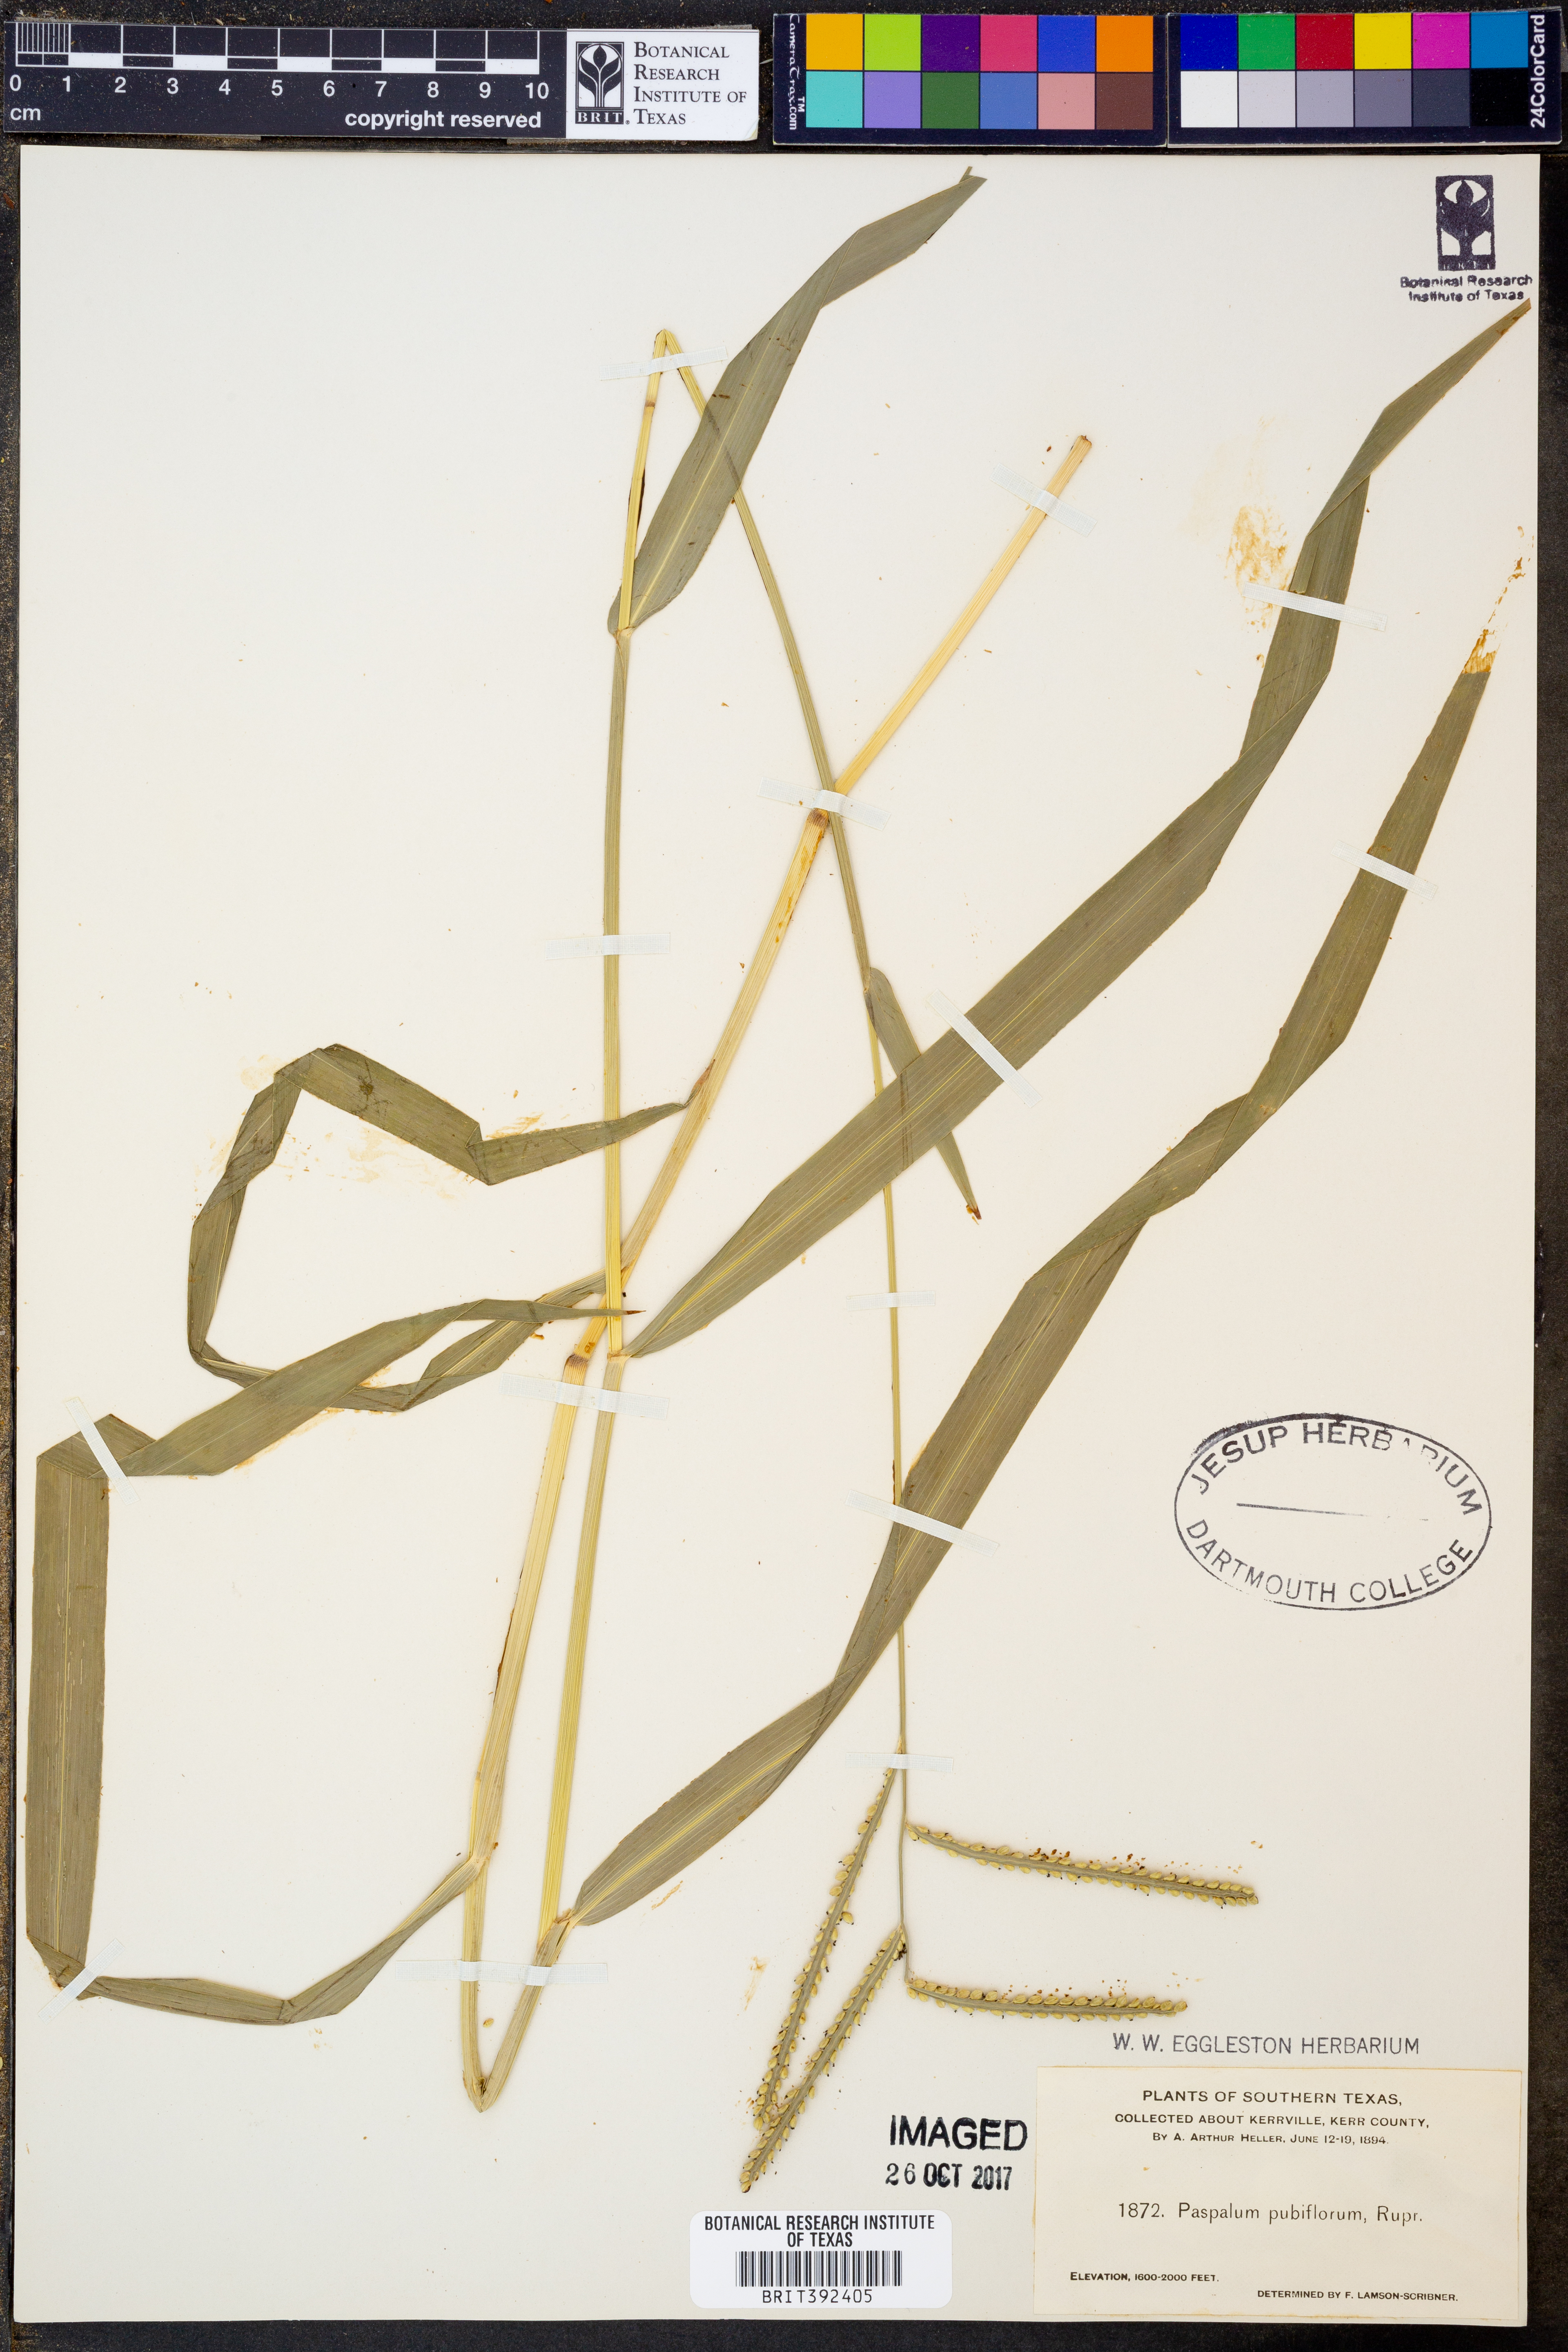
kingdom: Plantae
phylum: Tracheophyta
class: Liliopsida
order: Poales
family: Poaceae
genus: Paspalum
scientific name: Paspalum pubiflorum
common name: Hairy-seed paspalum
